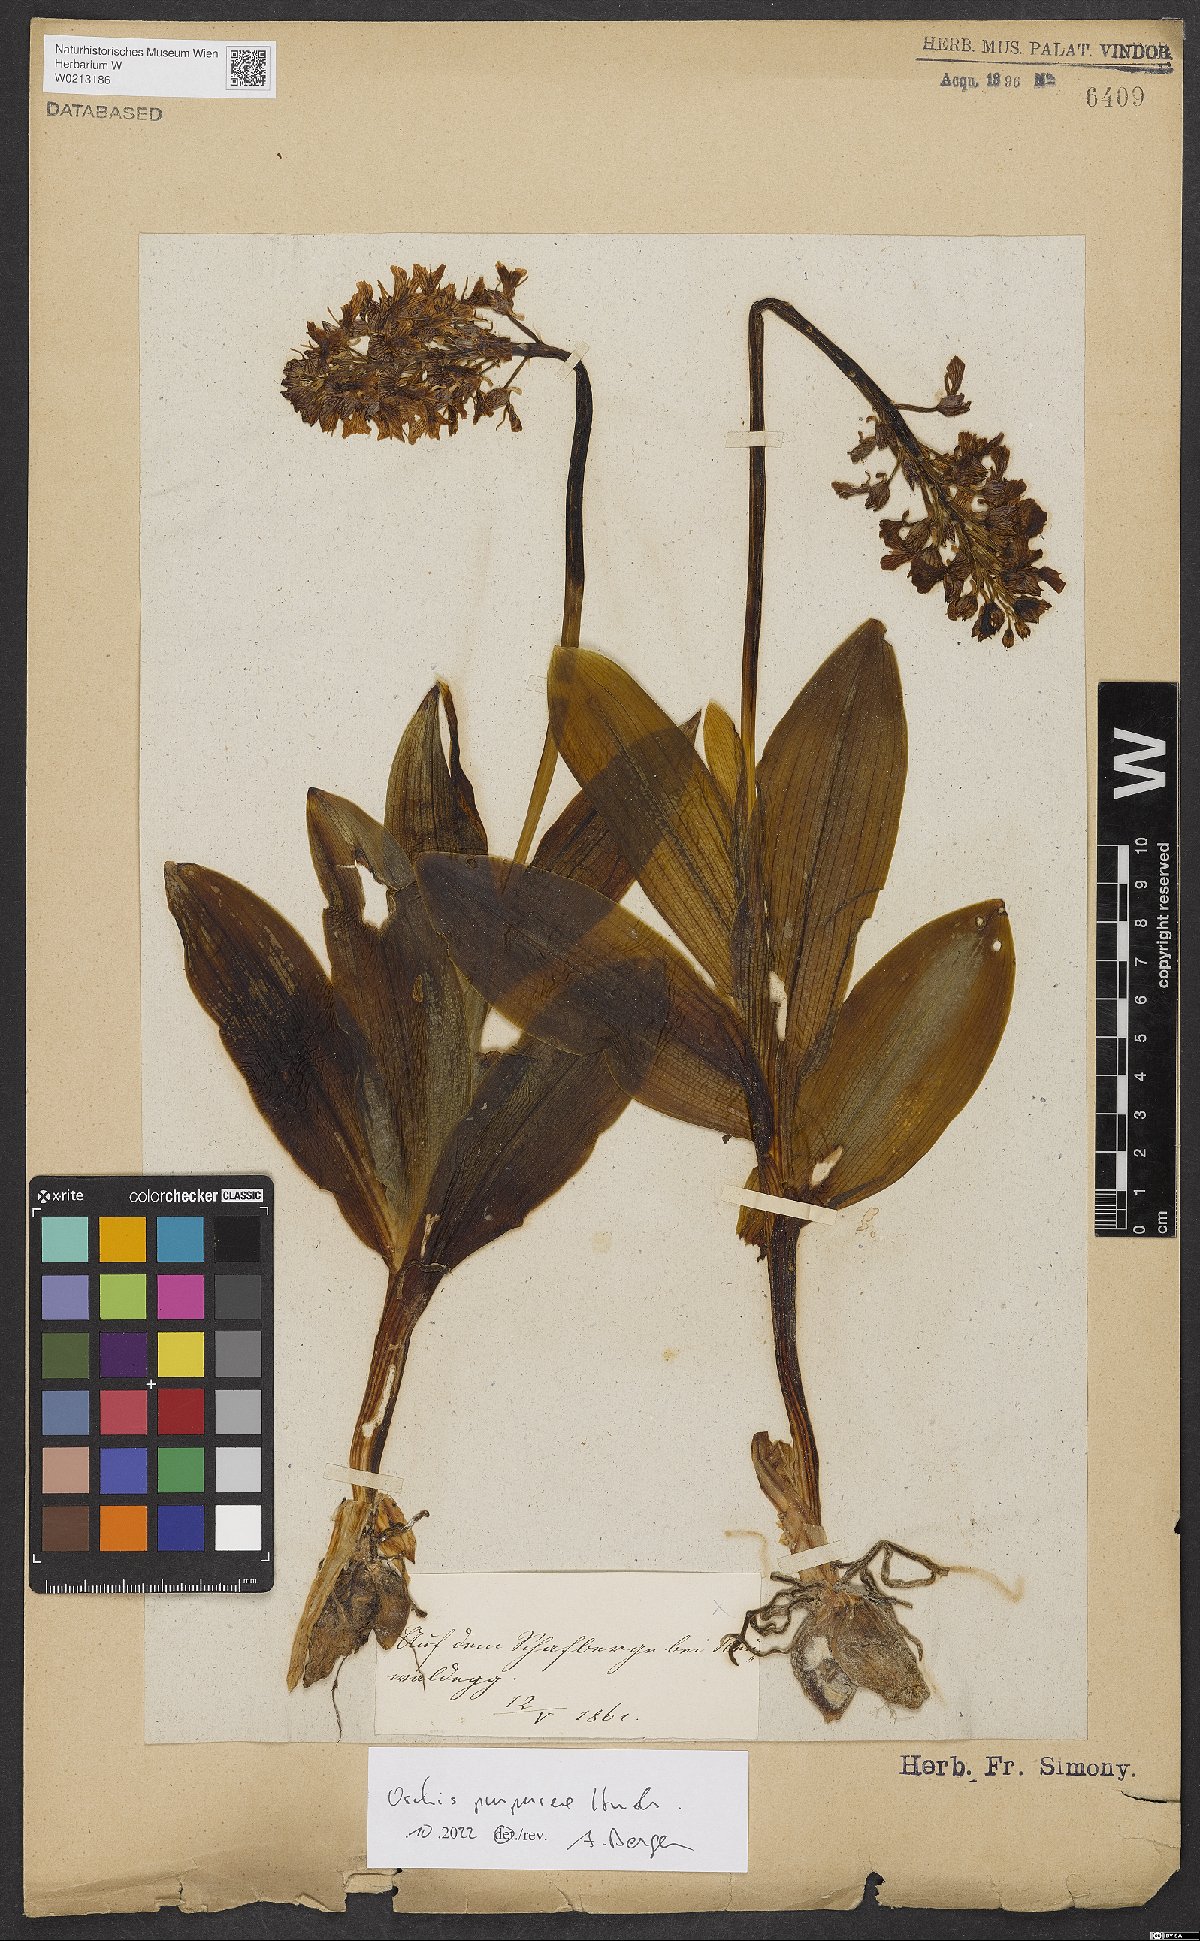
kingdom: Plantae
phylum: Tracheophyta
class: Liliopsida
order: Asparagales
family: Orchidaceae
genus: Orchis
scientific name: Orchis purpurea
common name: Lady orchid
